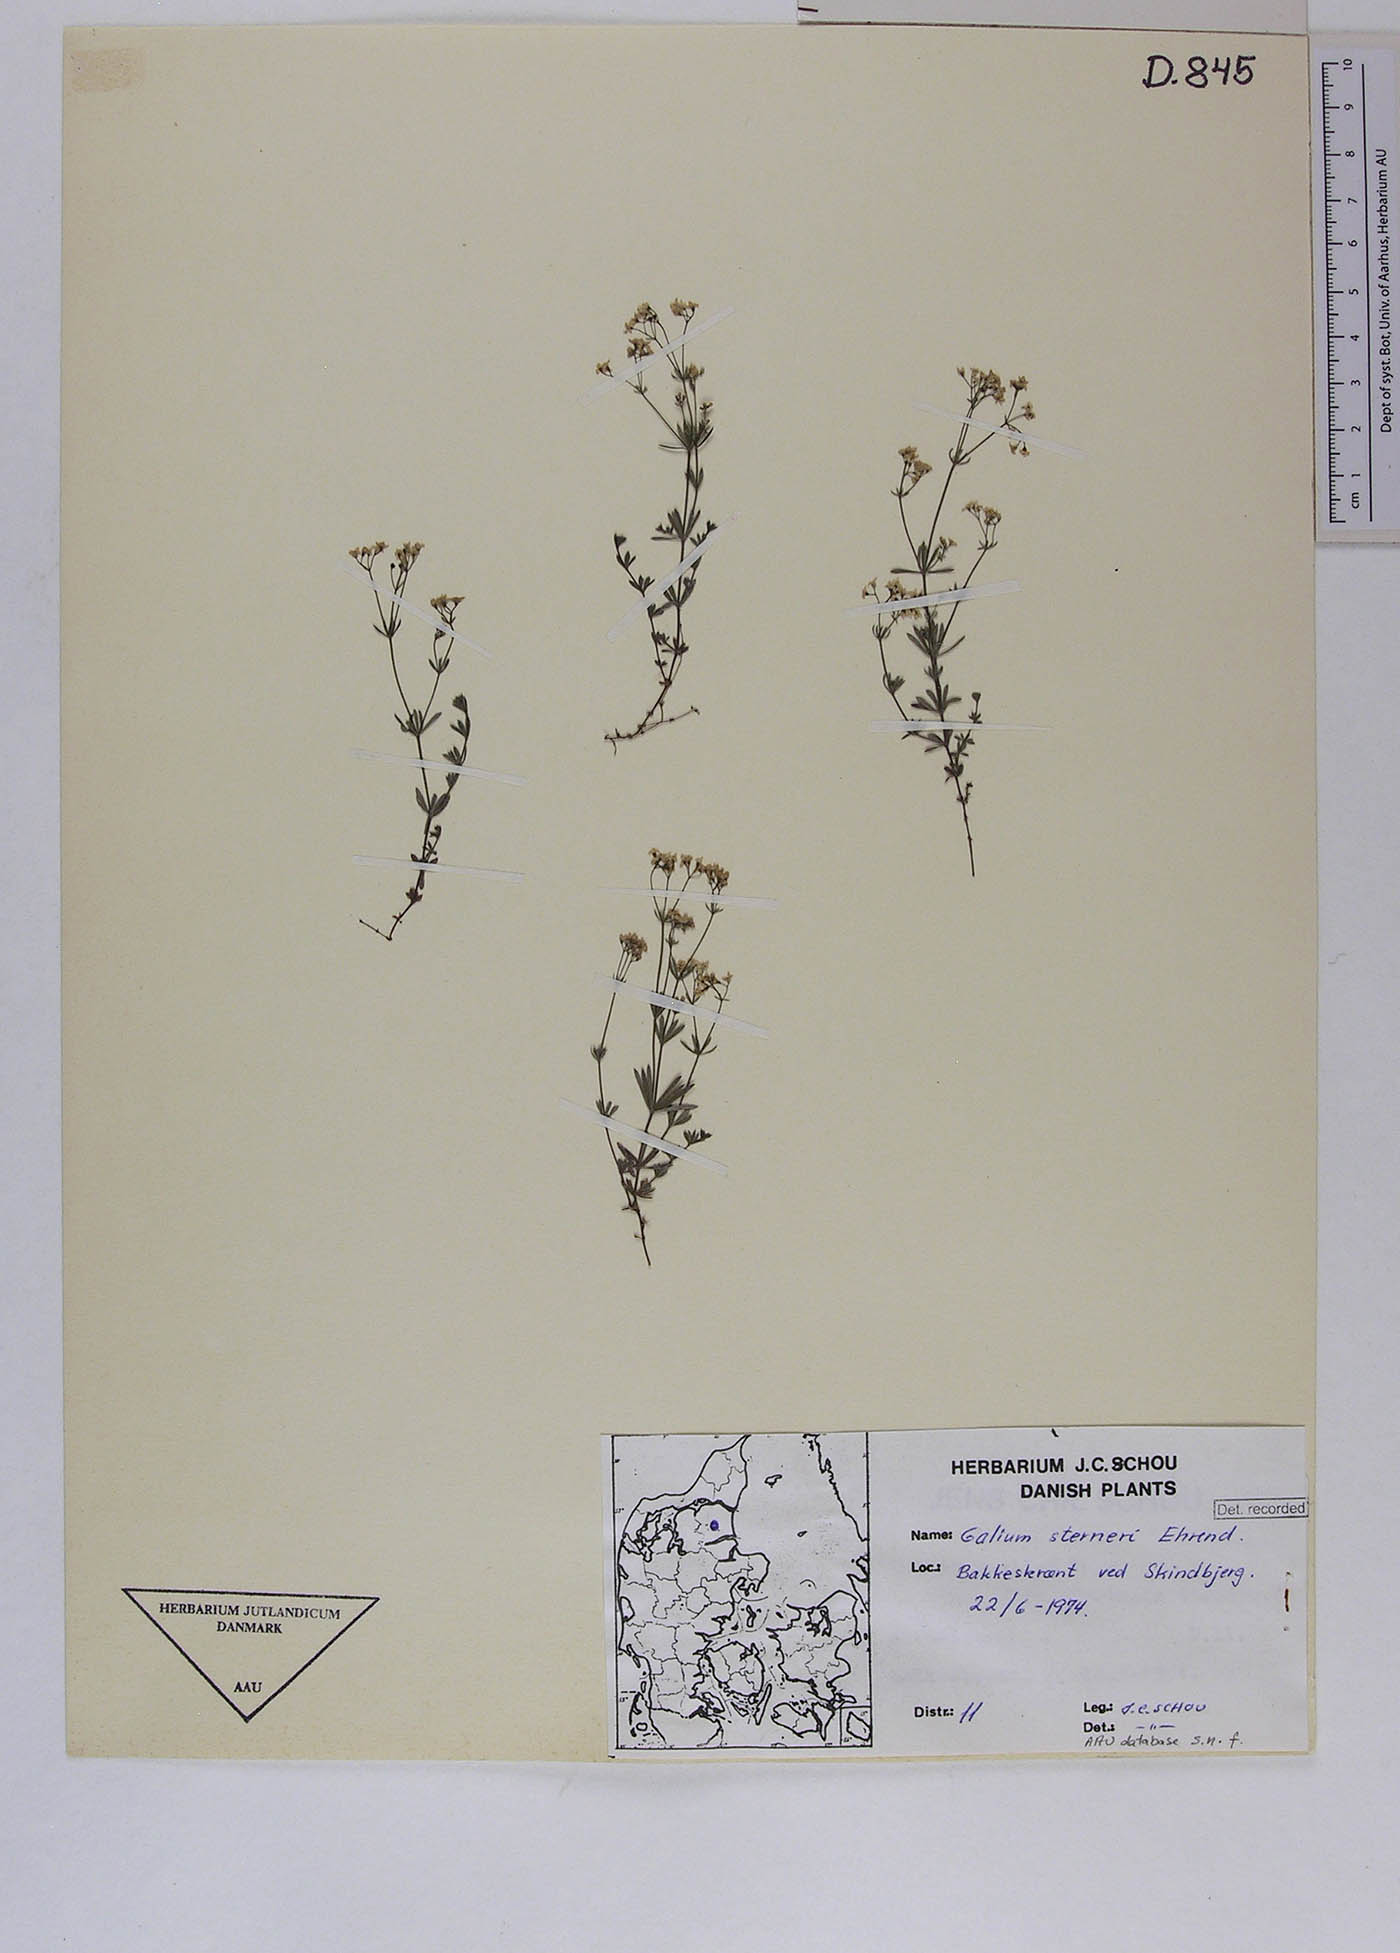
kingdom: Plantae
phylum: Tracheophyta
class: Magnoliopsida
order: Gentianales
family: Rubiaceae
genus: Galium
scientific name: Galium sterneri
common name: Limestone bedstraw
